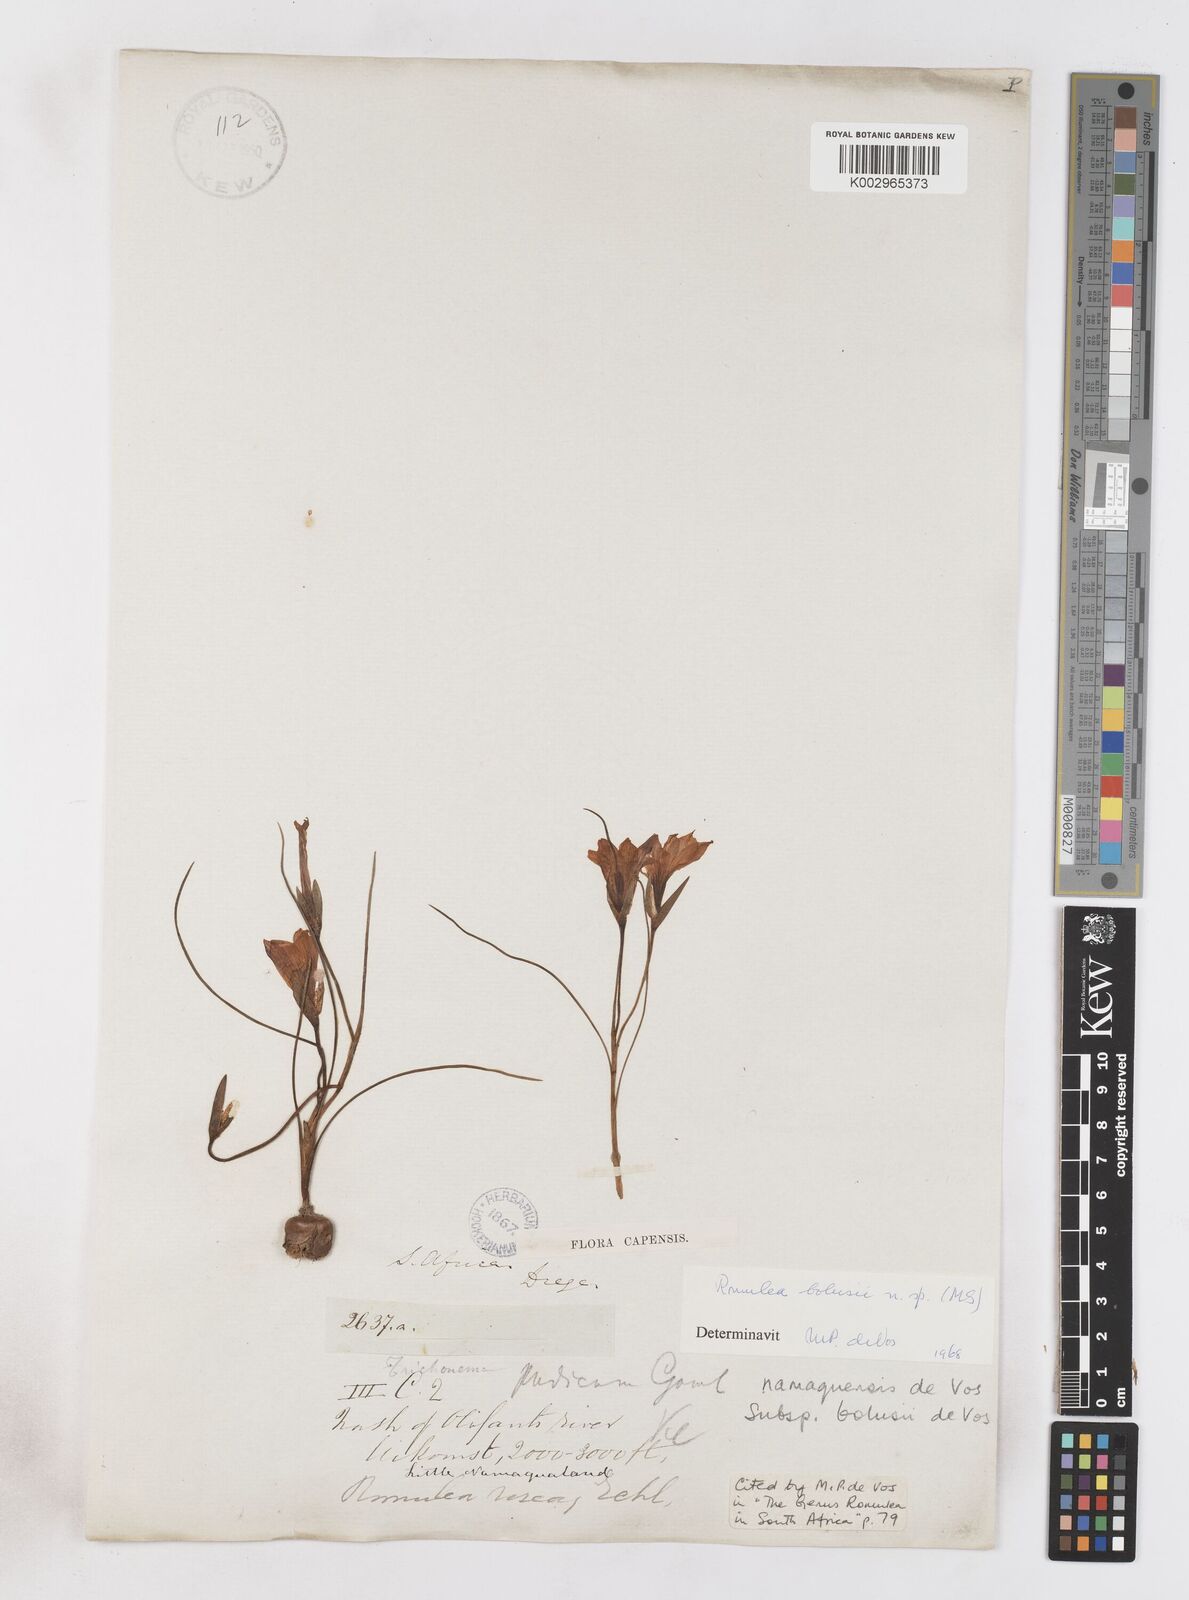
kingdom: Plantae
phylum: Tracheophyta
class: Liliopsida
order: Asparagales
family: Iridaceae
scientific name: Iridaceae
